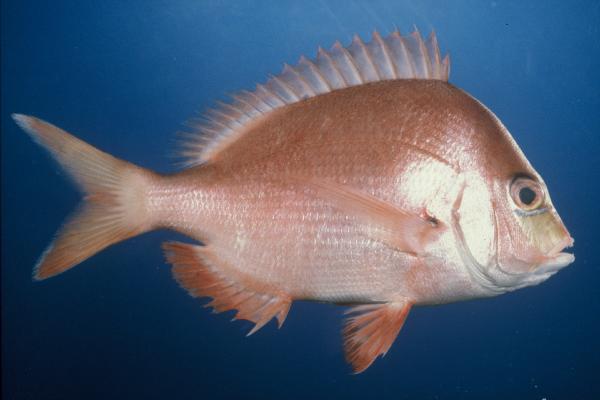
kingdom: Animalia
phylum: Chordata
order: Perciformes
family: Sparidae
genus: Chrysoblephus
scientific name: Chrysoblephus puniceus
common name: Slinger seabream
